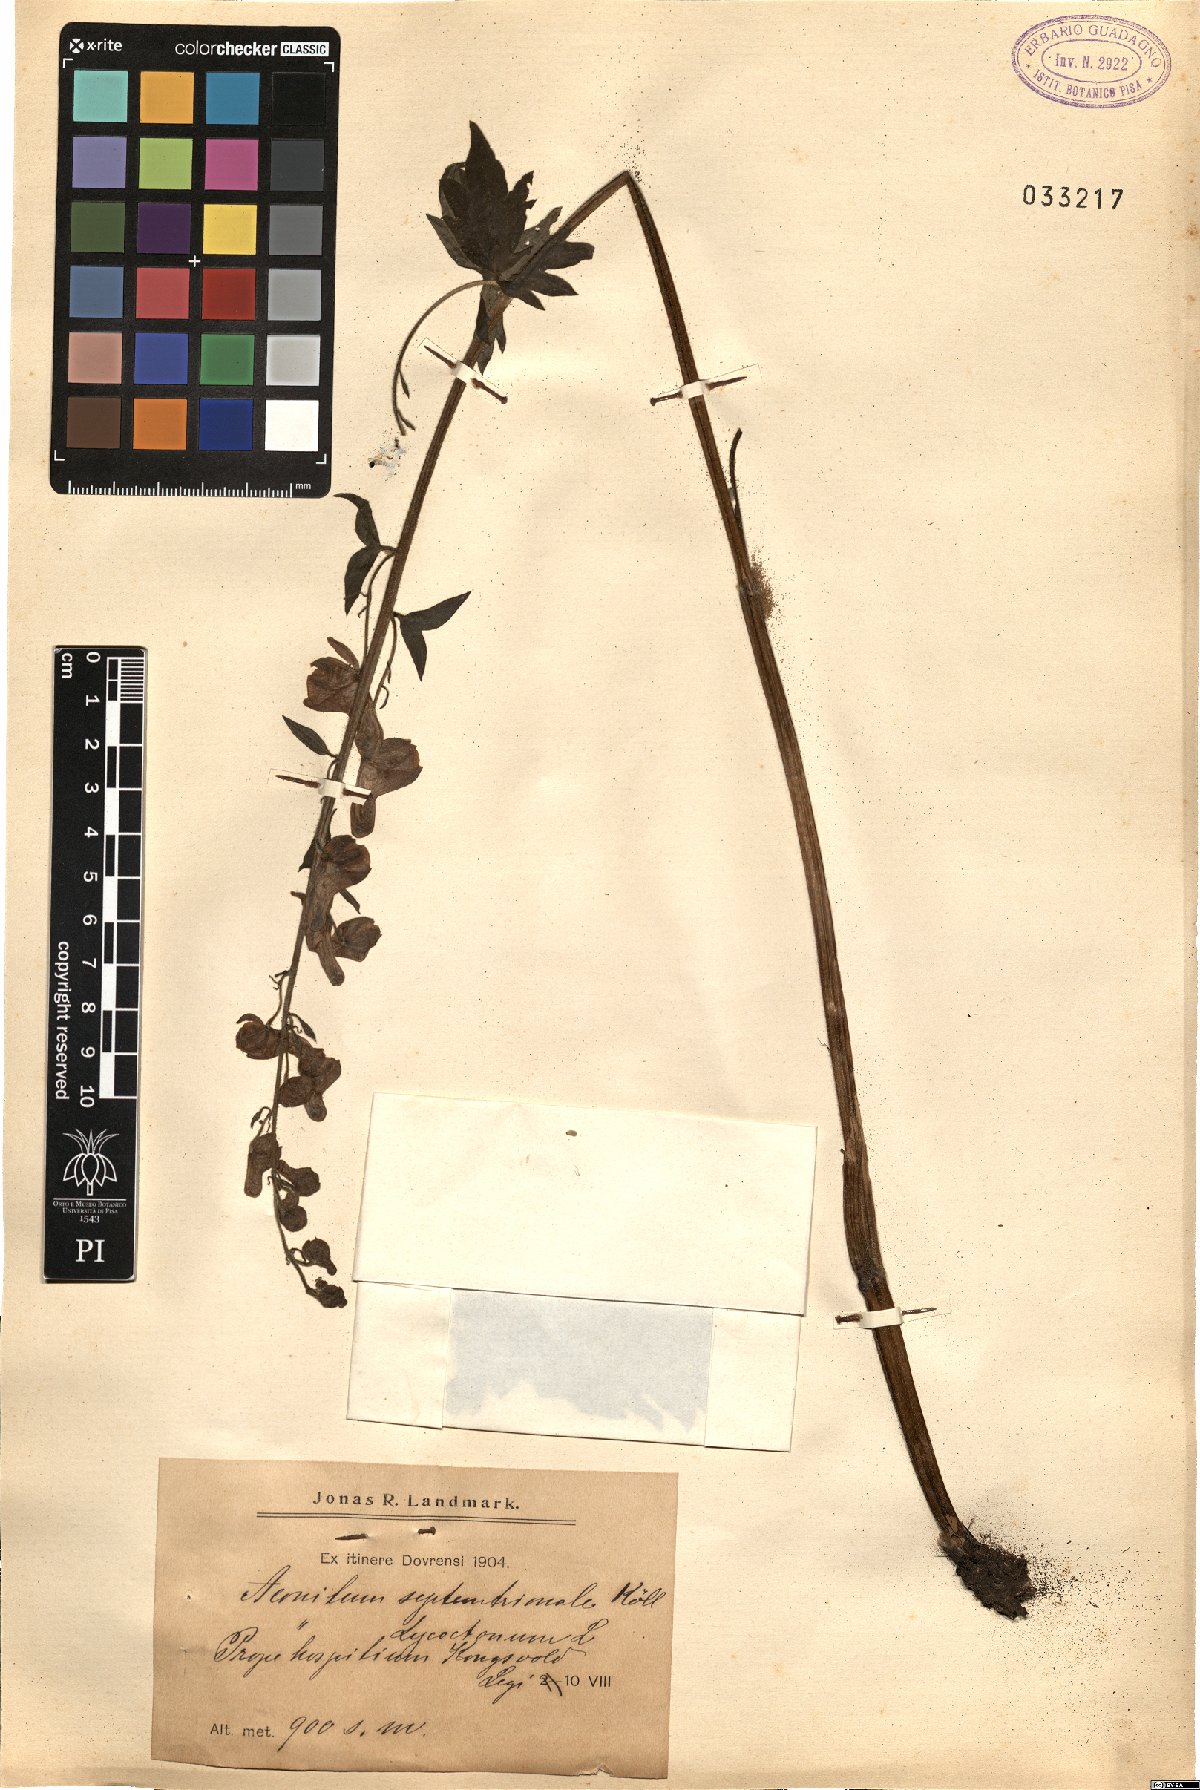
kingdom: Plantae
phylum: Tracheophyta
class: Magnoliopsida
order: Ranunculales
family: Ranunculaceae
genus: Aconitum
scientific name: Aconitum septentrionale
